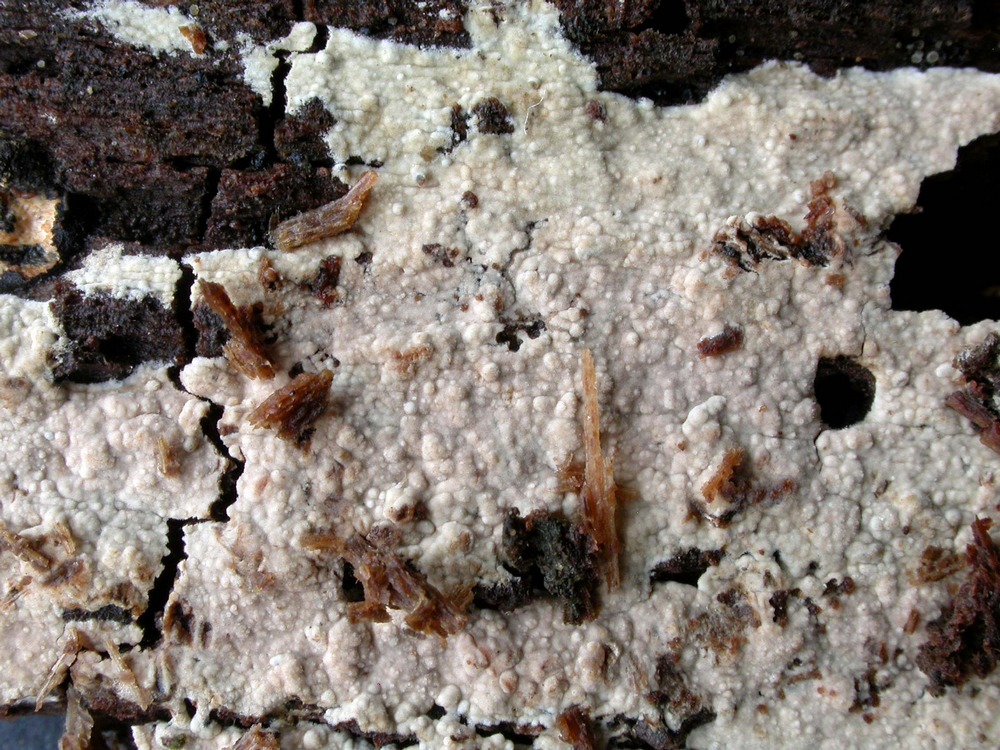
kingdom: Fungi
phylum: Basidiomycota
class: Agaricomycetes
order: Polyporales
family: Hyphodermataceae
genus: Hyphoderma
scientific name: Hyphoderma roseocremeum
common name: lillaplettet kalkskind
